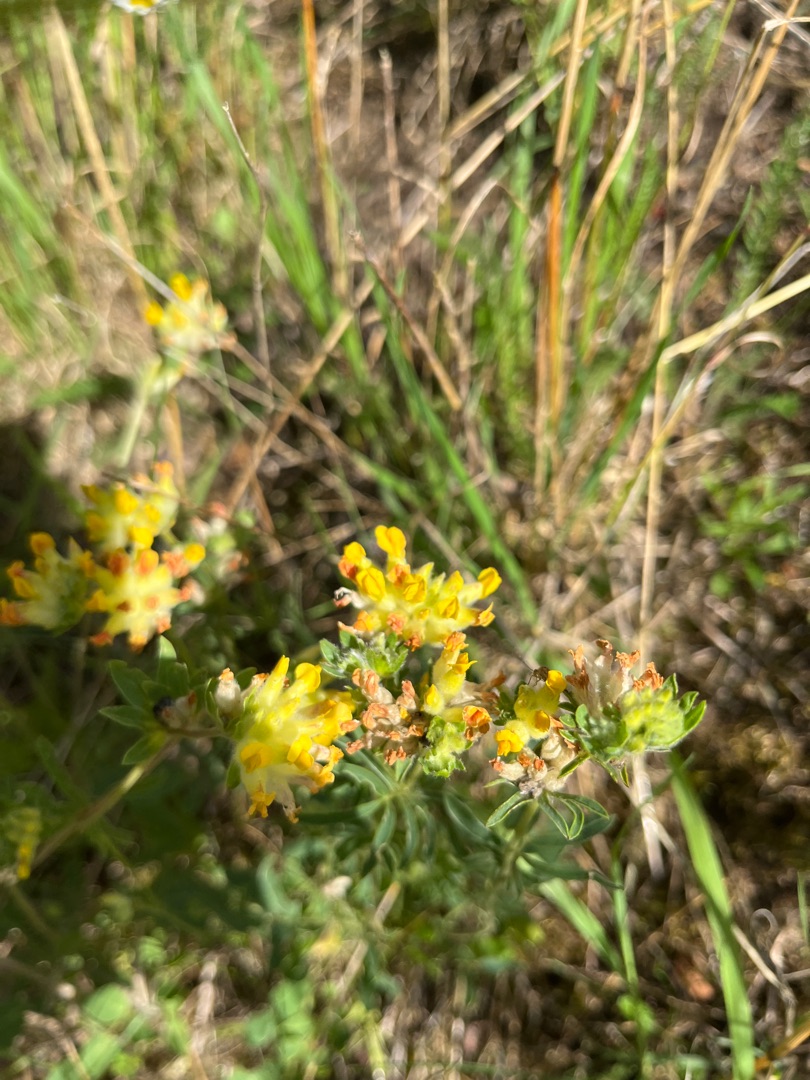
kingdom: Plantae
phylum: Tracheophyta
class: Magnoliopsida
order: Fabales
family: Fabaceae
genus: Anthyllis
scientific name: Anthyllis vulneraria
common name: Rundbælg
